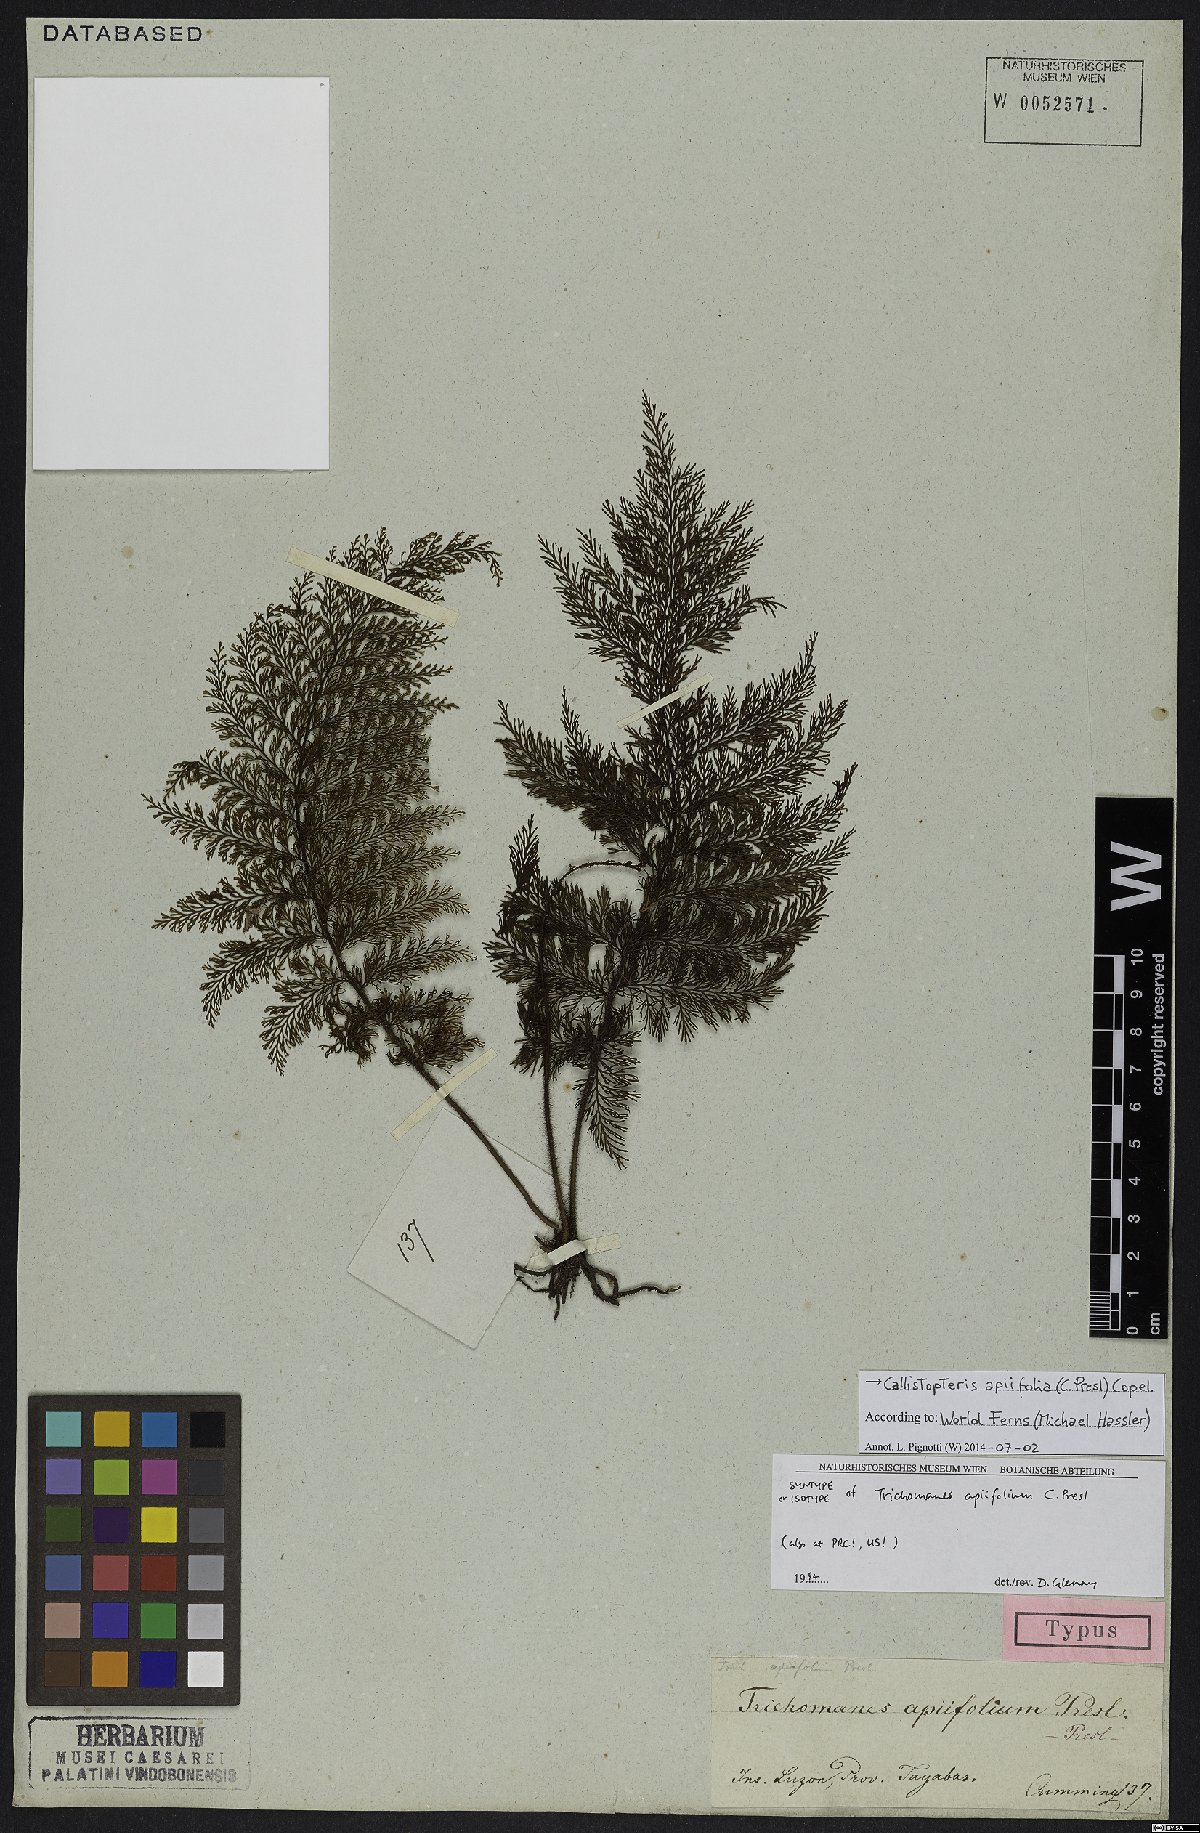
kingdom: Plantae
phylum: Tracheophyta
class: Polypodiopsida
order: Hymenophyllales
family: Hymenophyllaceae
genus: Callistopteris
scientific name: Callistopteris apiifolia
